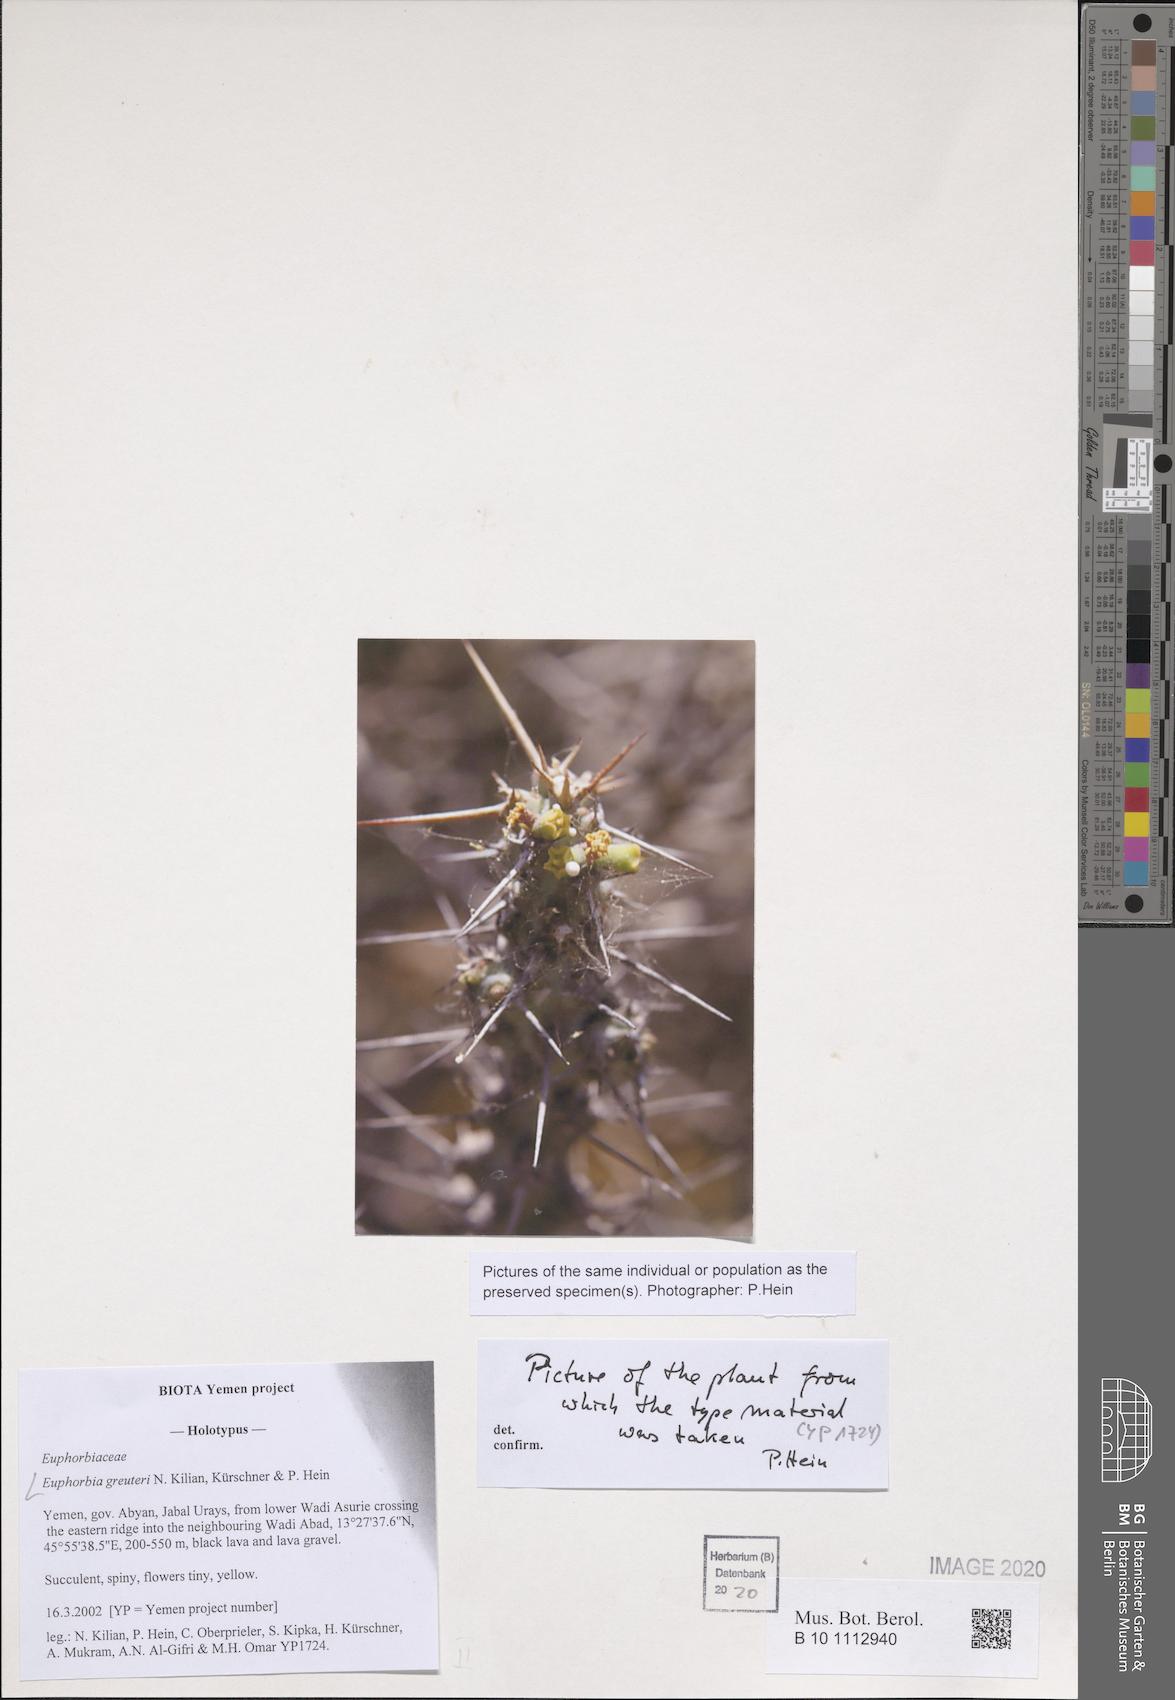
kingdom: Plantae
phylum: Tracheophyta
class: Magnoliopsida
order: Malpighiales
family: Euphorbiaceae
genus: Euphorbia
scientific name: Euphorbia greuteri
